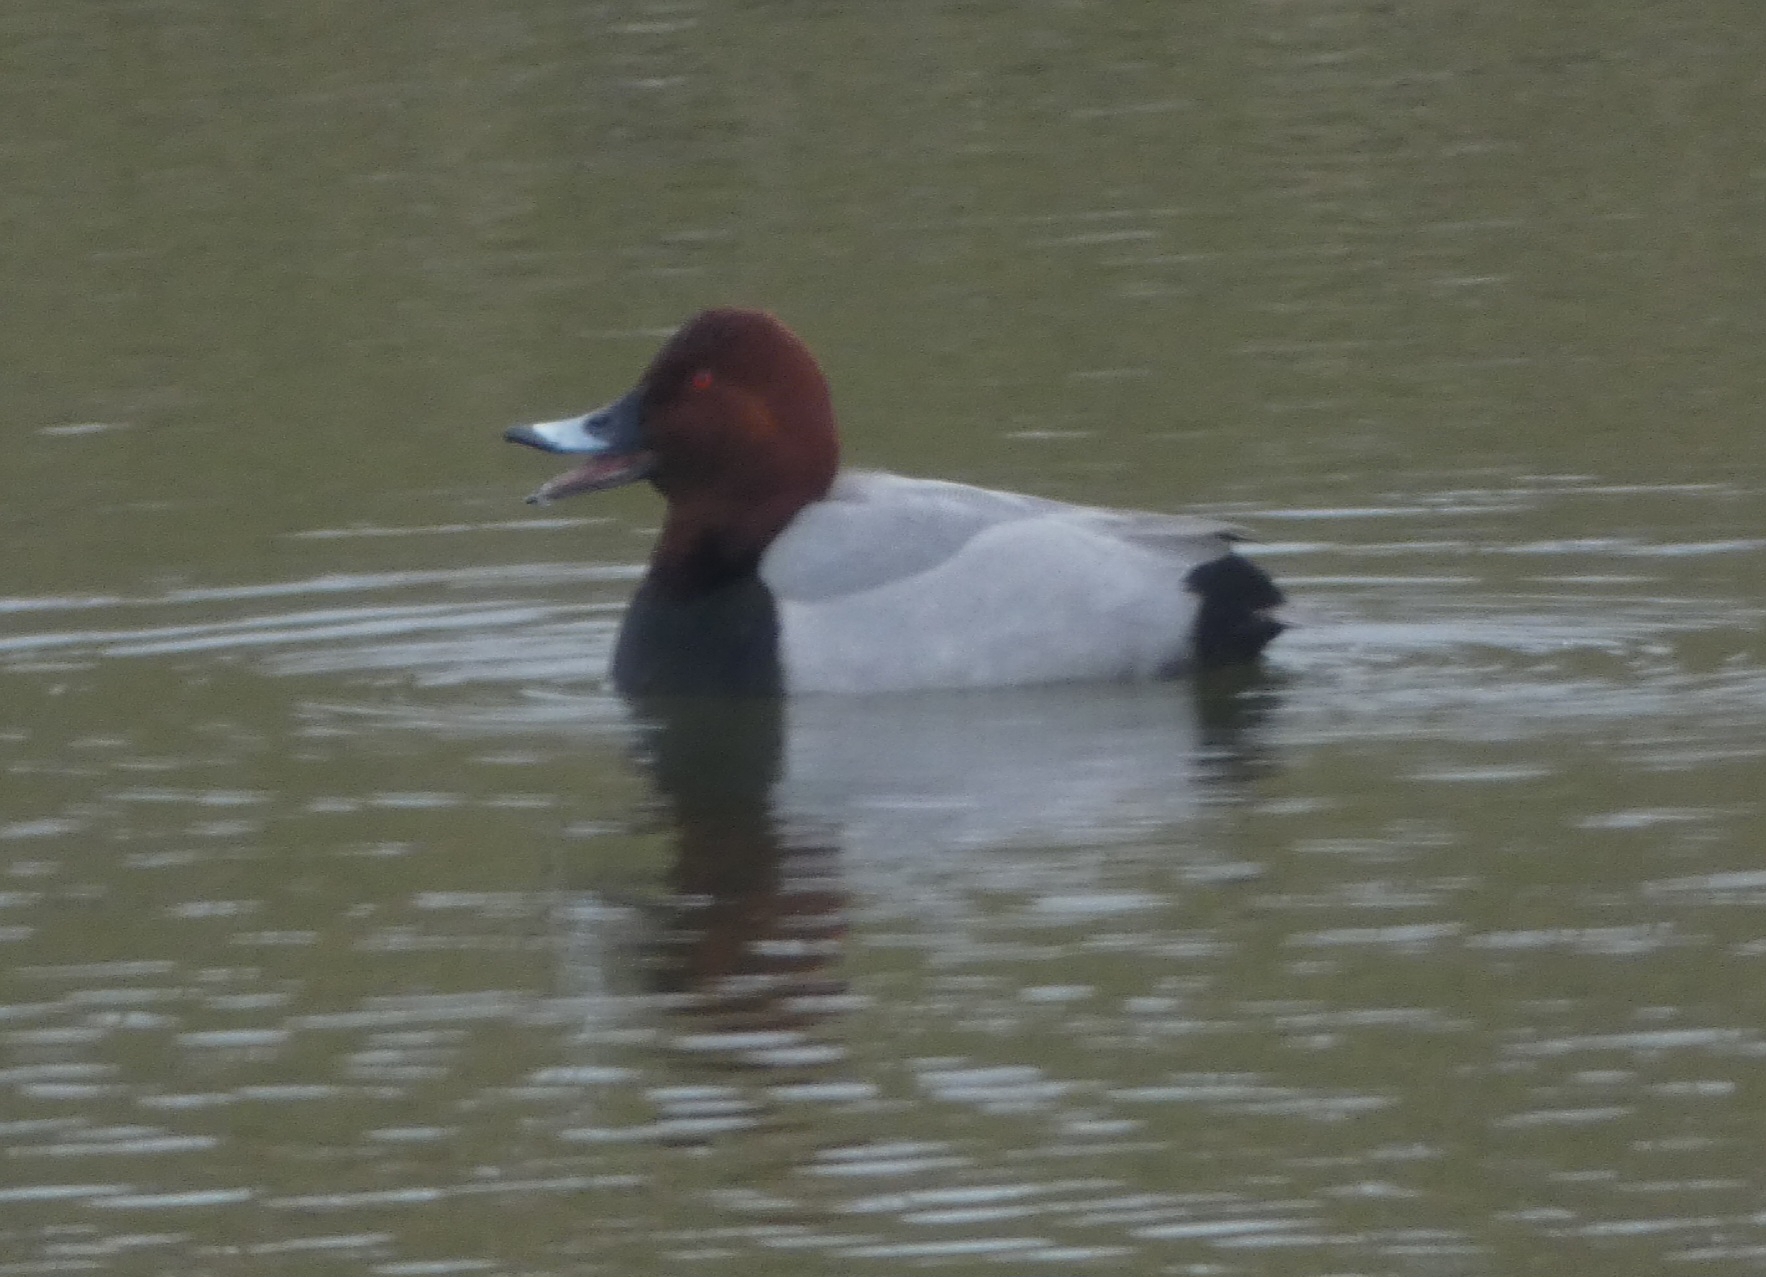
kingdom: Animalia
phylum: Chordata
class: Aves
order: Anseriformes
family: Anatidae
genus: Aythya
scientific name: Aythya ferina
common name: Taffeland
